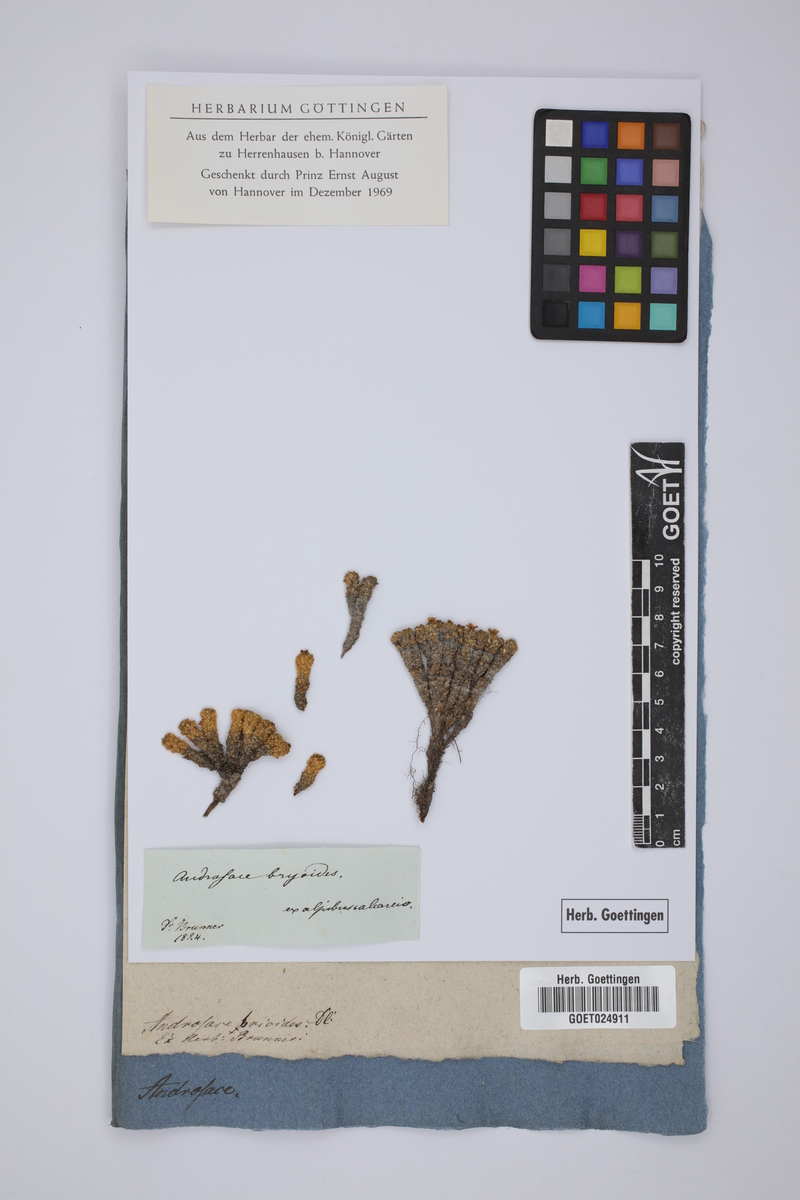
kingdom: Plantae
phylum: Tracheophyta
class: Magnoliopsida
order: Ericales
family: Primulaceae
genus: Androsace
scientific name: Androsace helvetica
